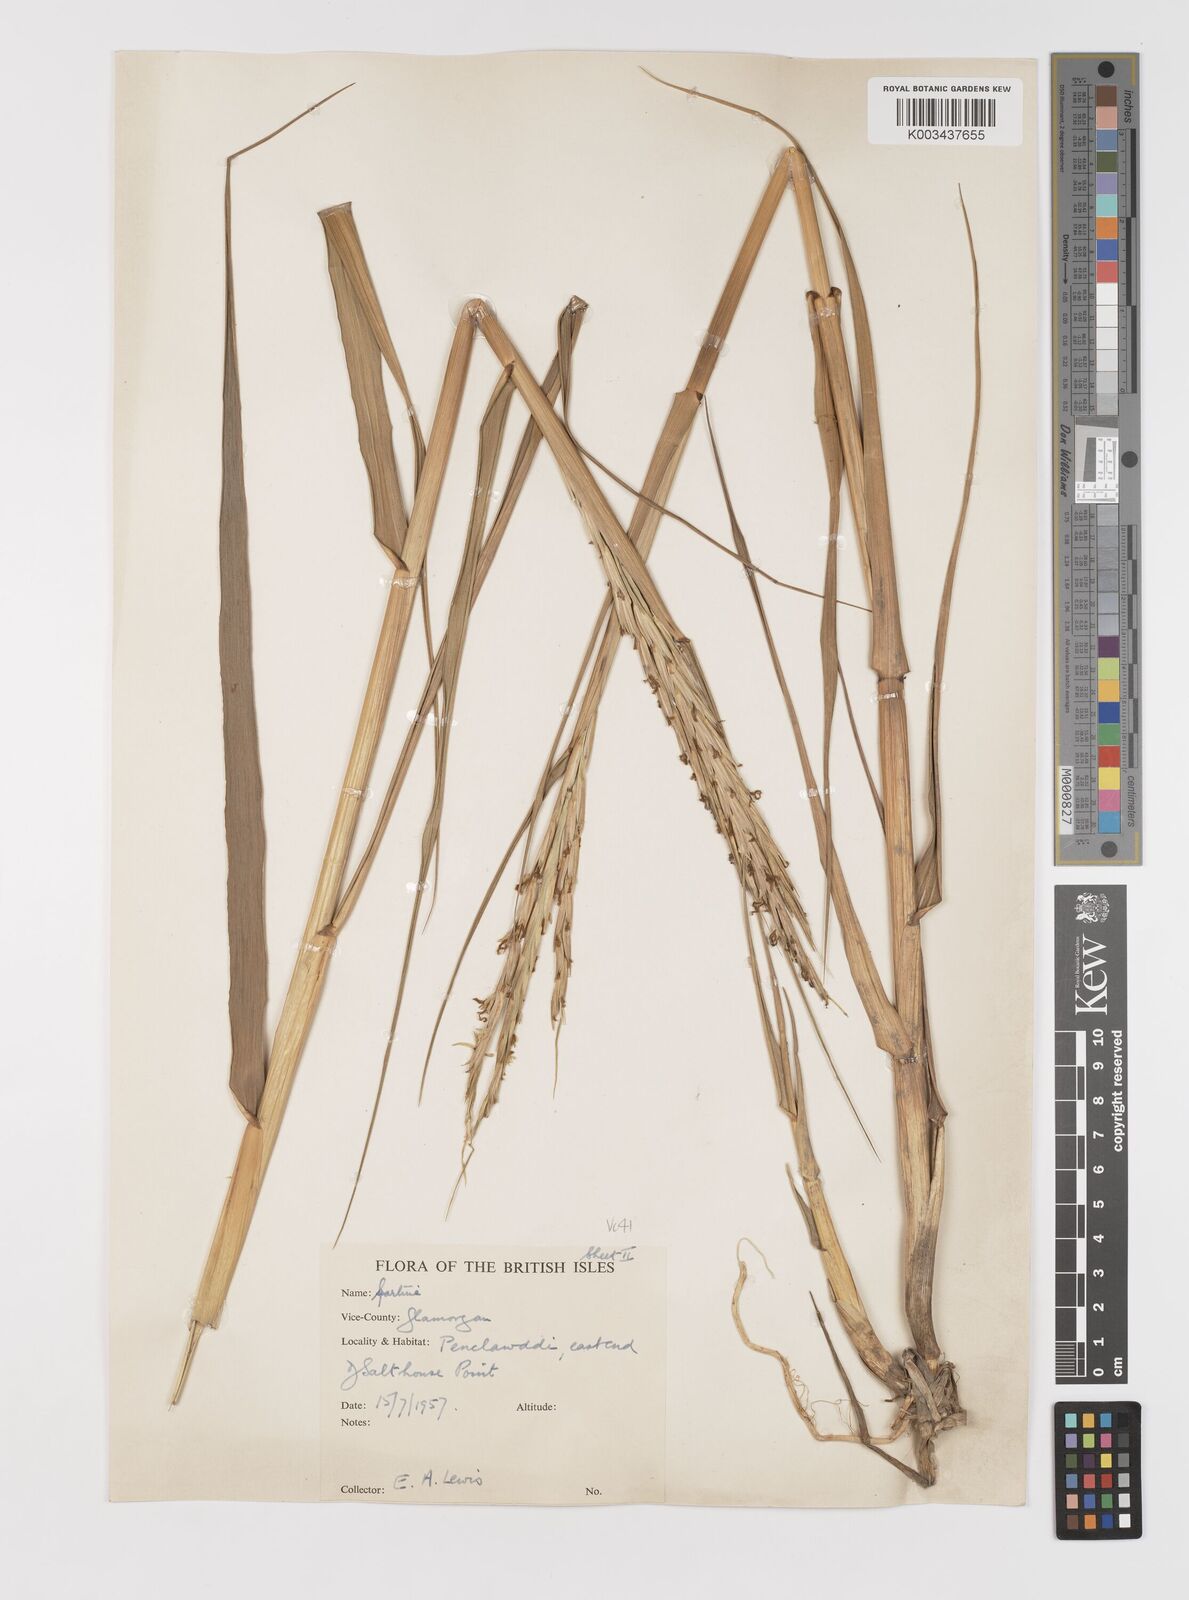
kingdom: Plantae
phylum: Tracheophyta
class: Liliopsida
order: Poales
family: Poaceae
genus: Sporobolus
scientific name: Sporobolus anglicus
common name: English cordgrass
